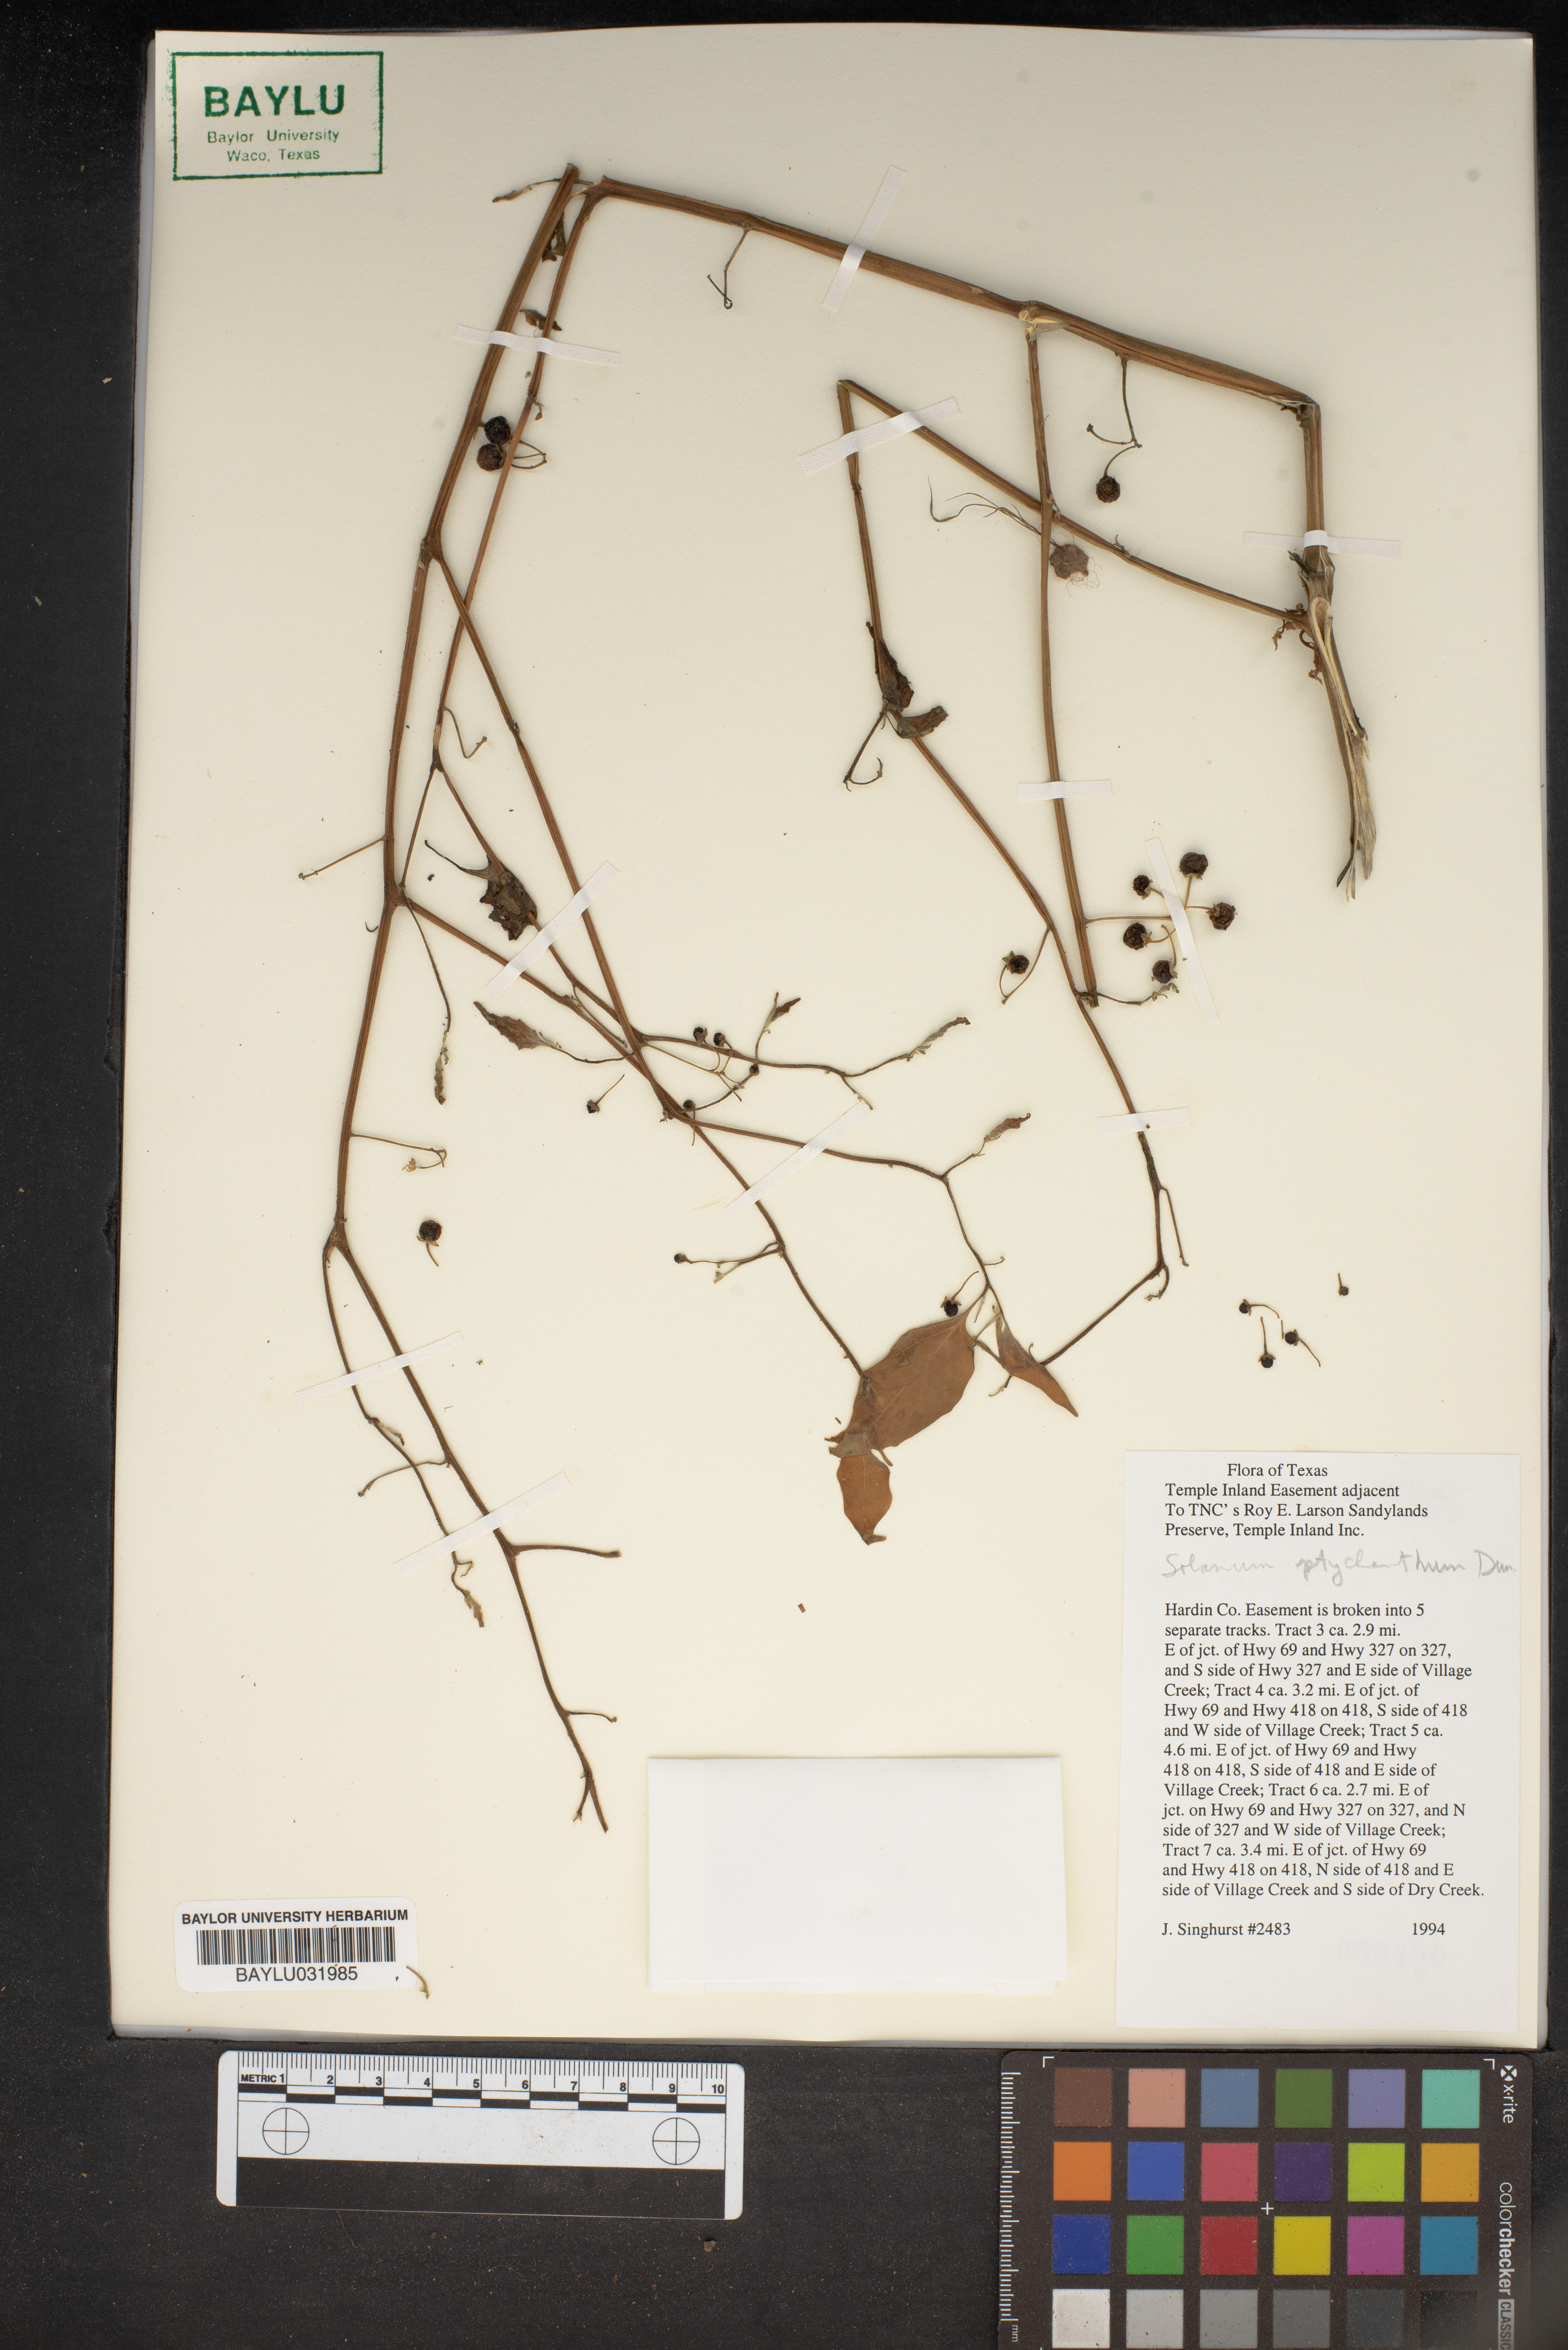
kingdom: Plantae
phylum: Tracheophyta
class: Magnoliopsida
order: Solanales
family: Solanaceae
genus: Solanum
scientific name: Solanum americanum
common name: American black nightshade
